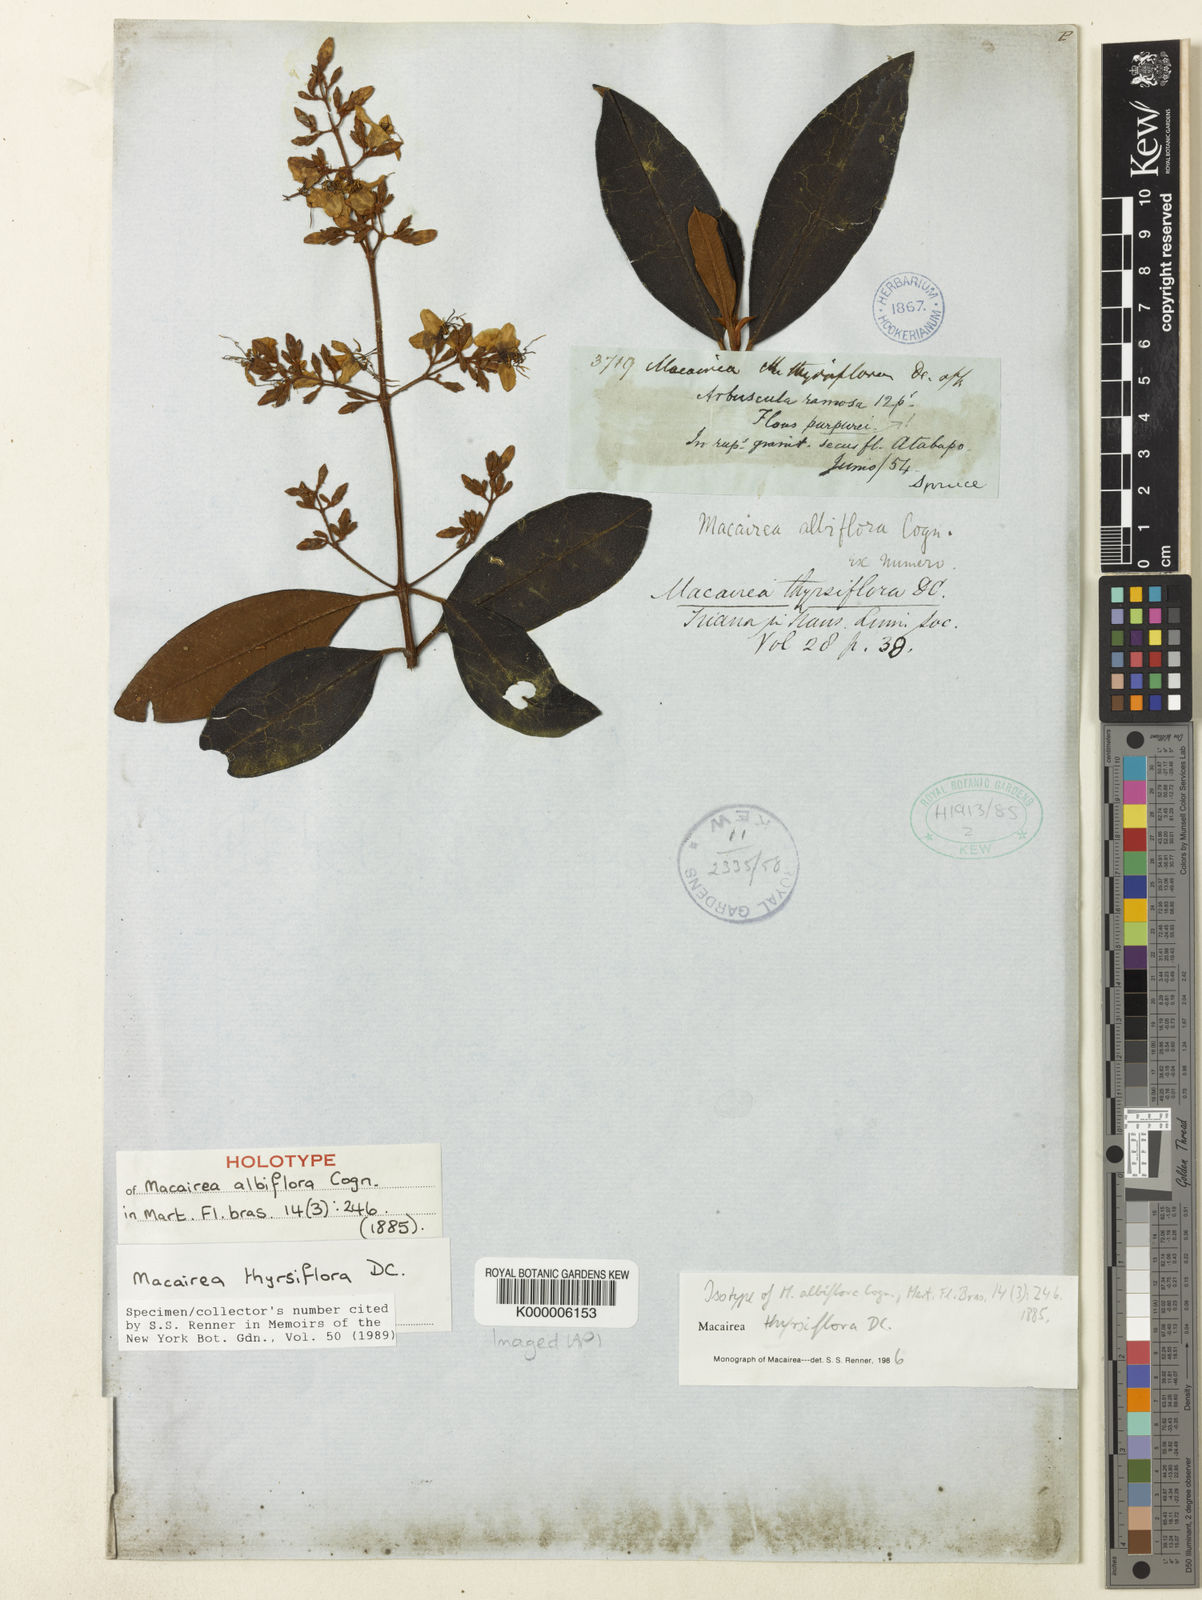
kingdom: Plantae
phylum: Tracheophyta
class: Magnoliopsida
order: Myrtales
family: Melastomataceae
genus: Macairea
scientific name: Macairea thyrsiflora
